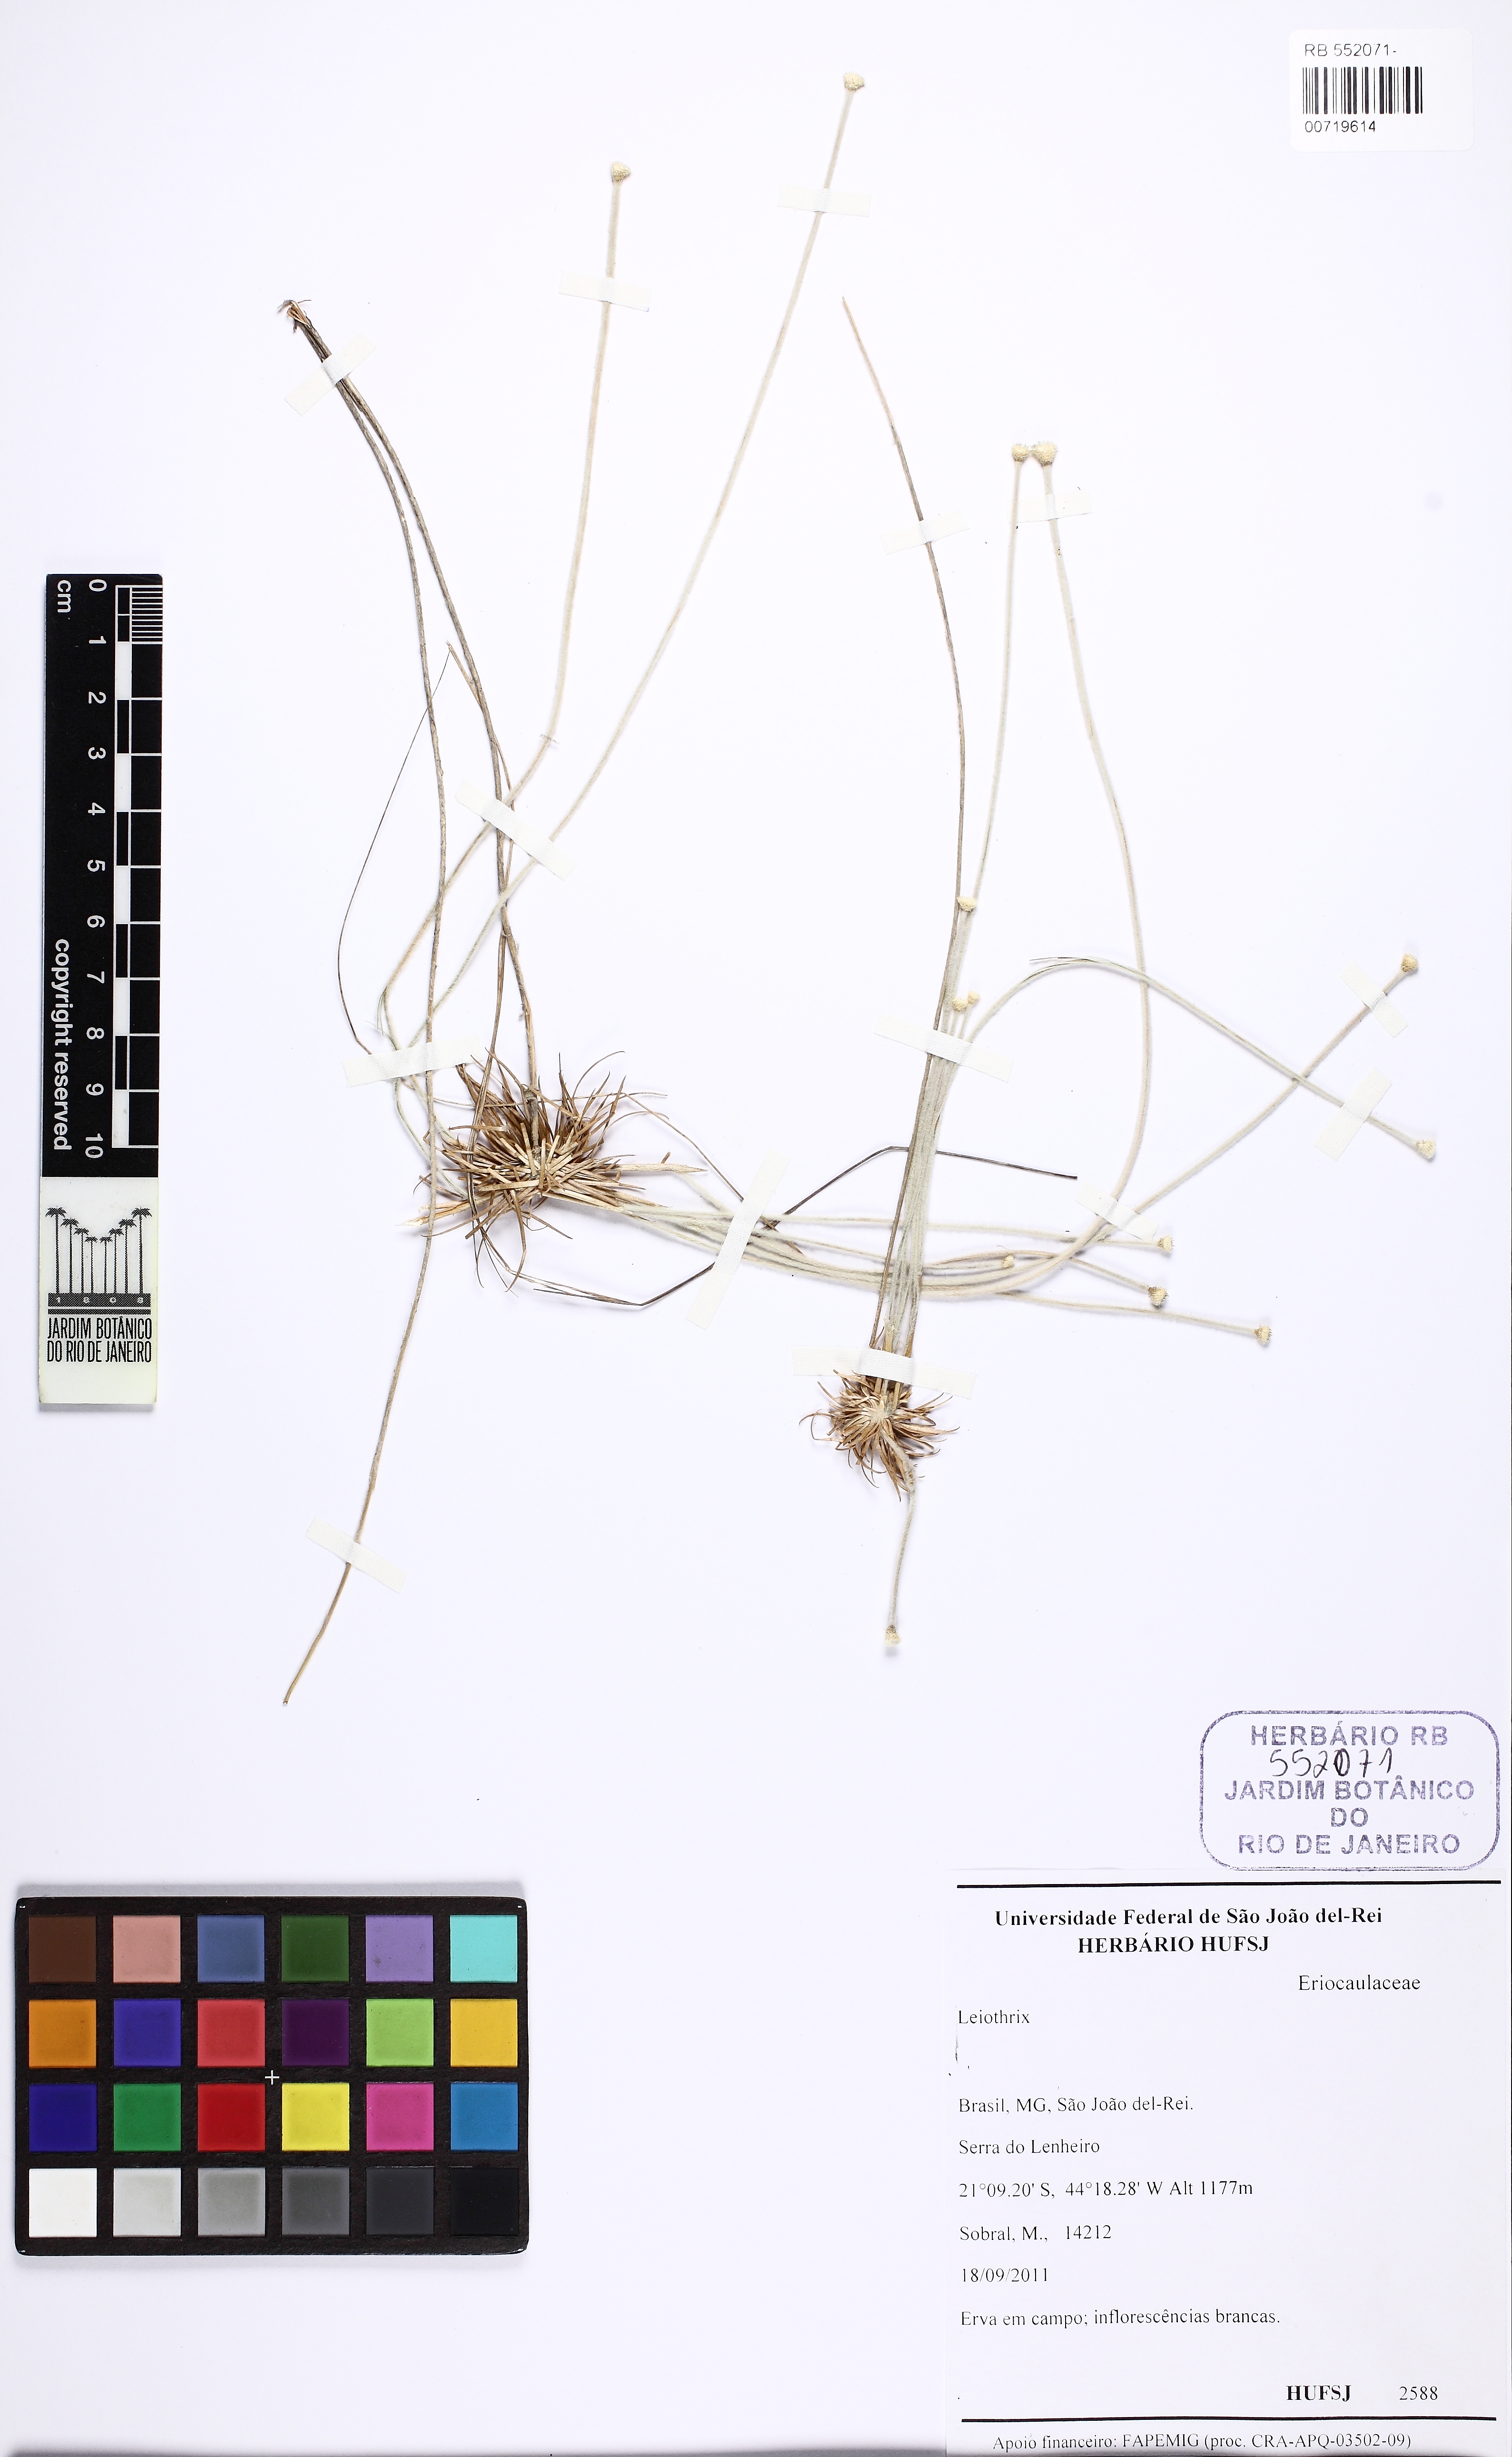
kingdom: Plantae
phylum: Tracheophyta
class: Liliopsida
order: Poales
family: Eriocaulaceae
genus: Leiothrix
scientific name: Leiothrix
